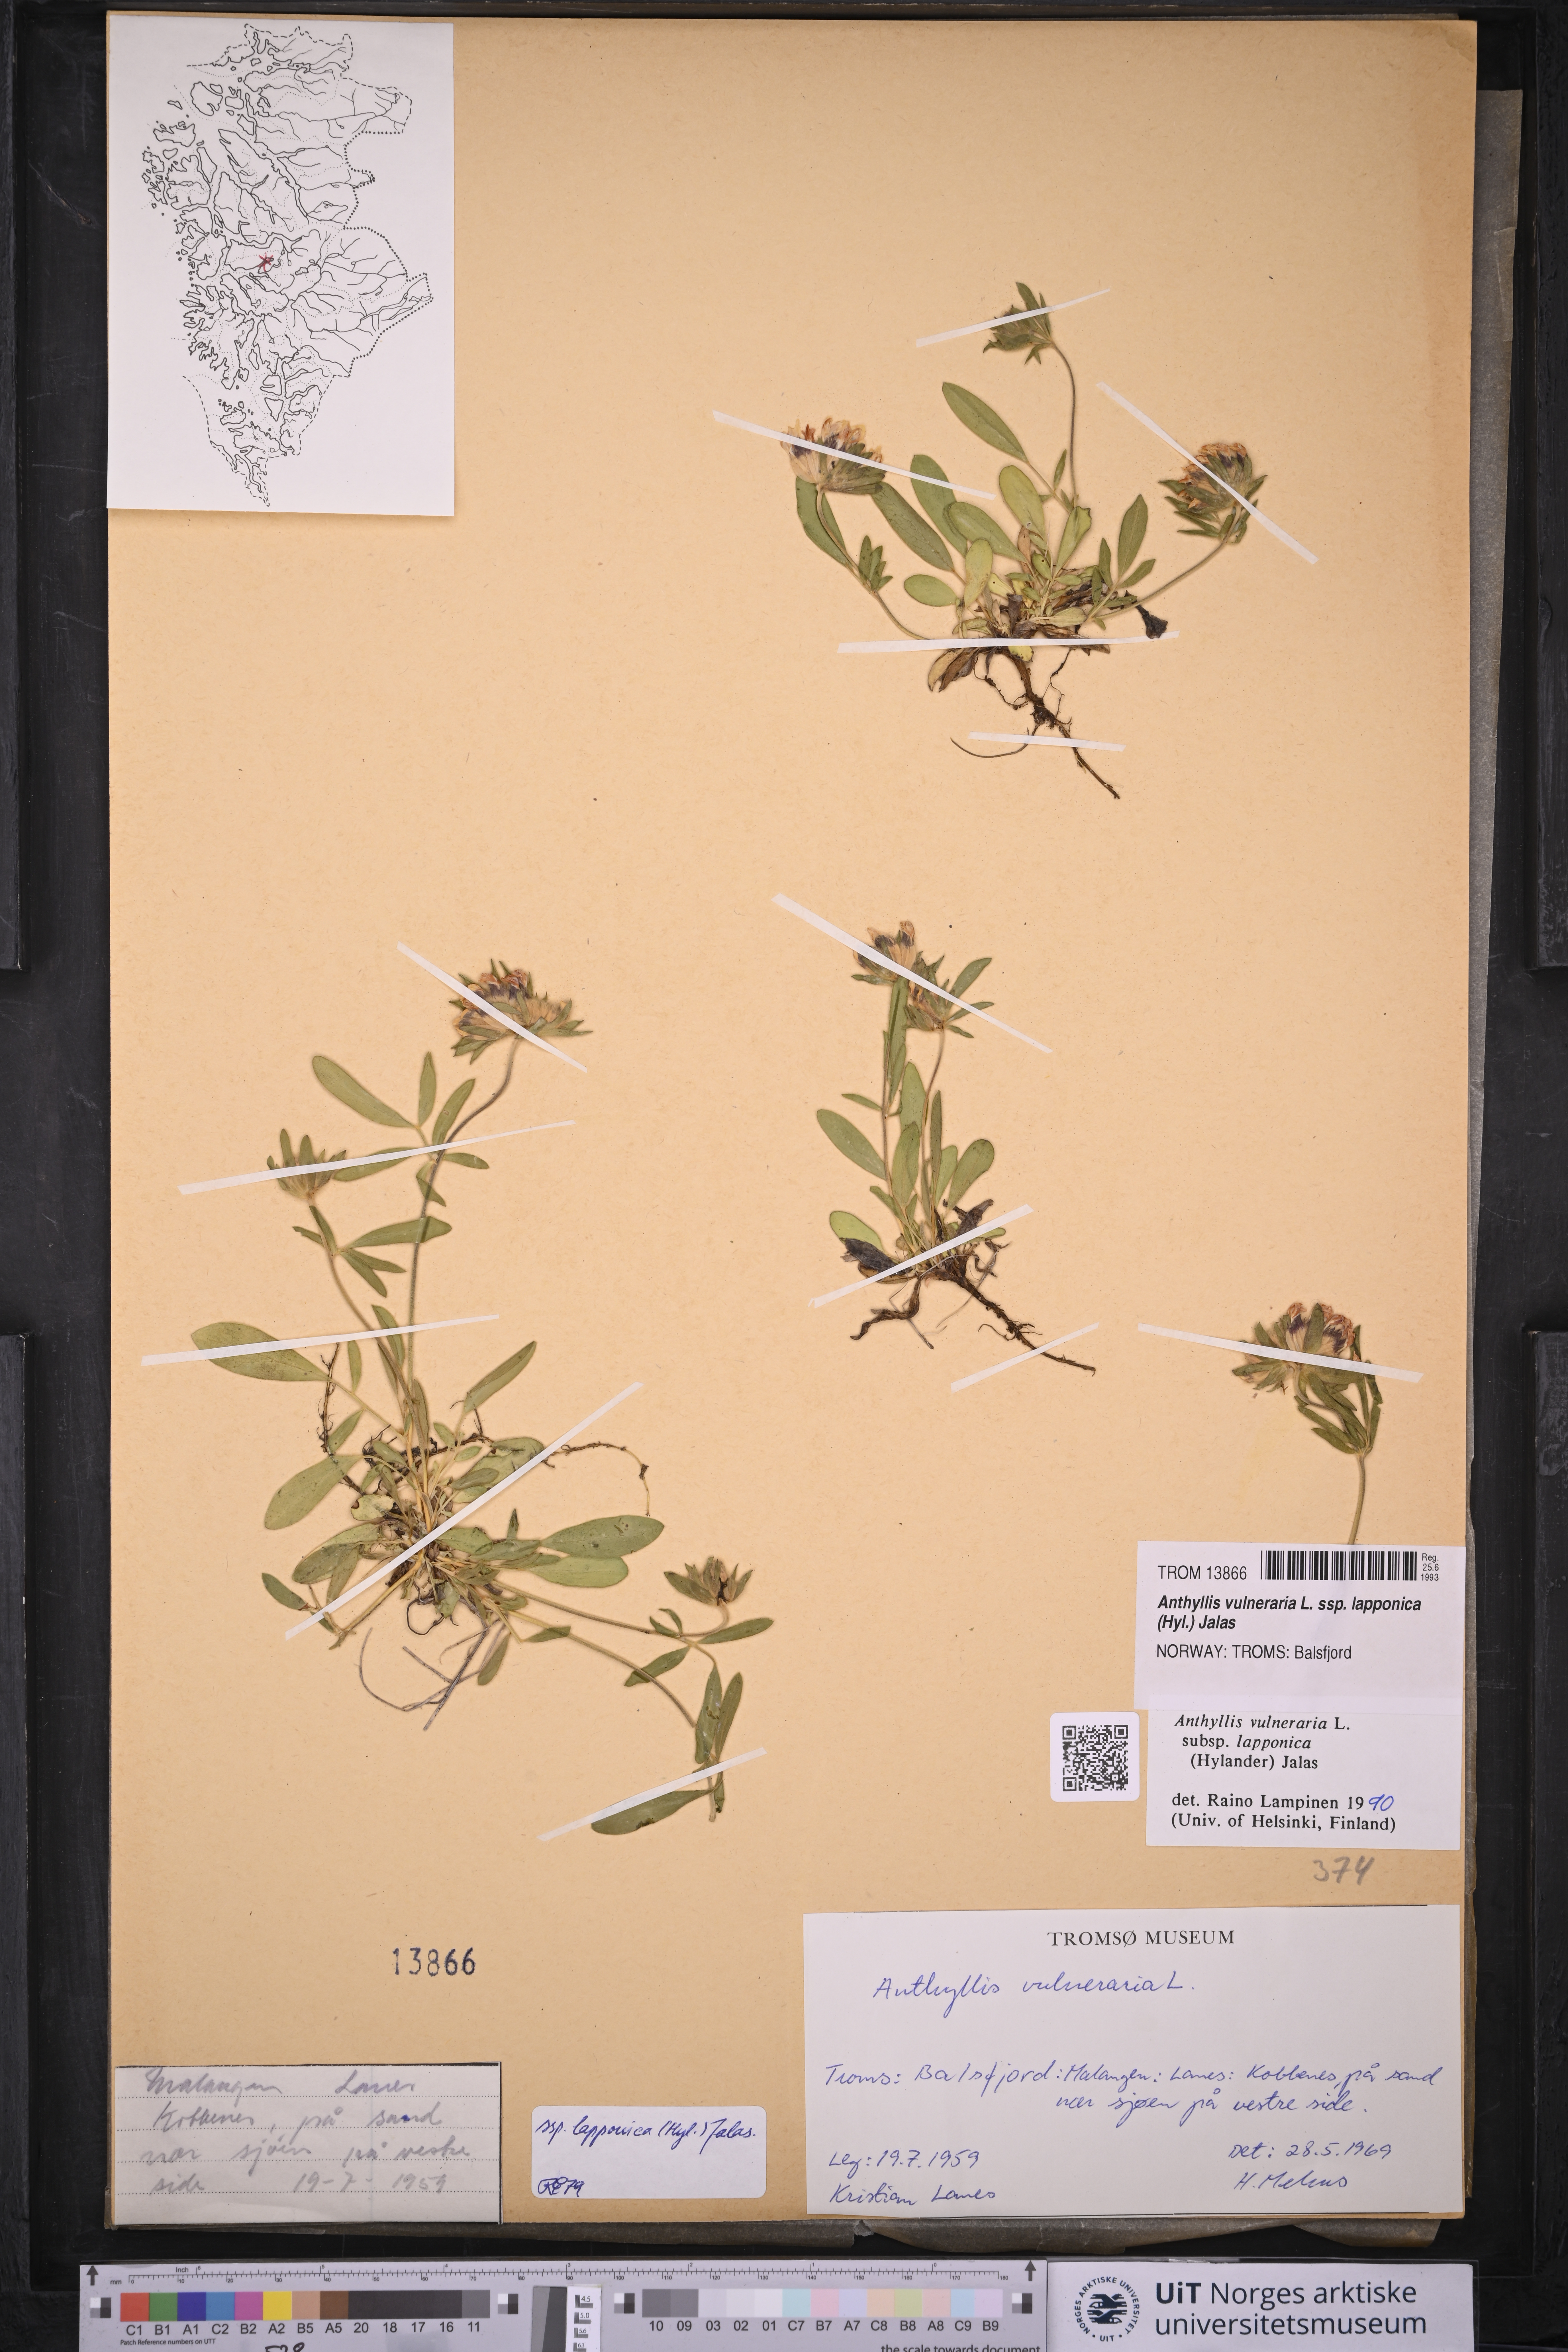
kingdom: Plantae
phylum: Tracheophyta
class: Magnoliopsida
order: Fabales
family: Fabaceae
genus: Anthyllis
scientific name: Anthyllis vulneraria
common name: Kidney vetch
